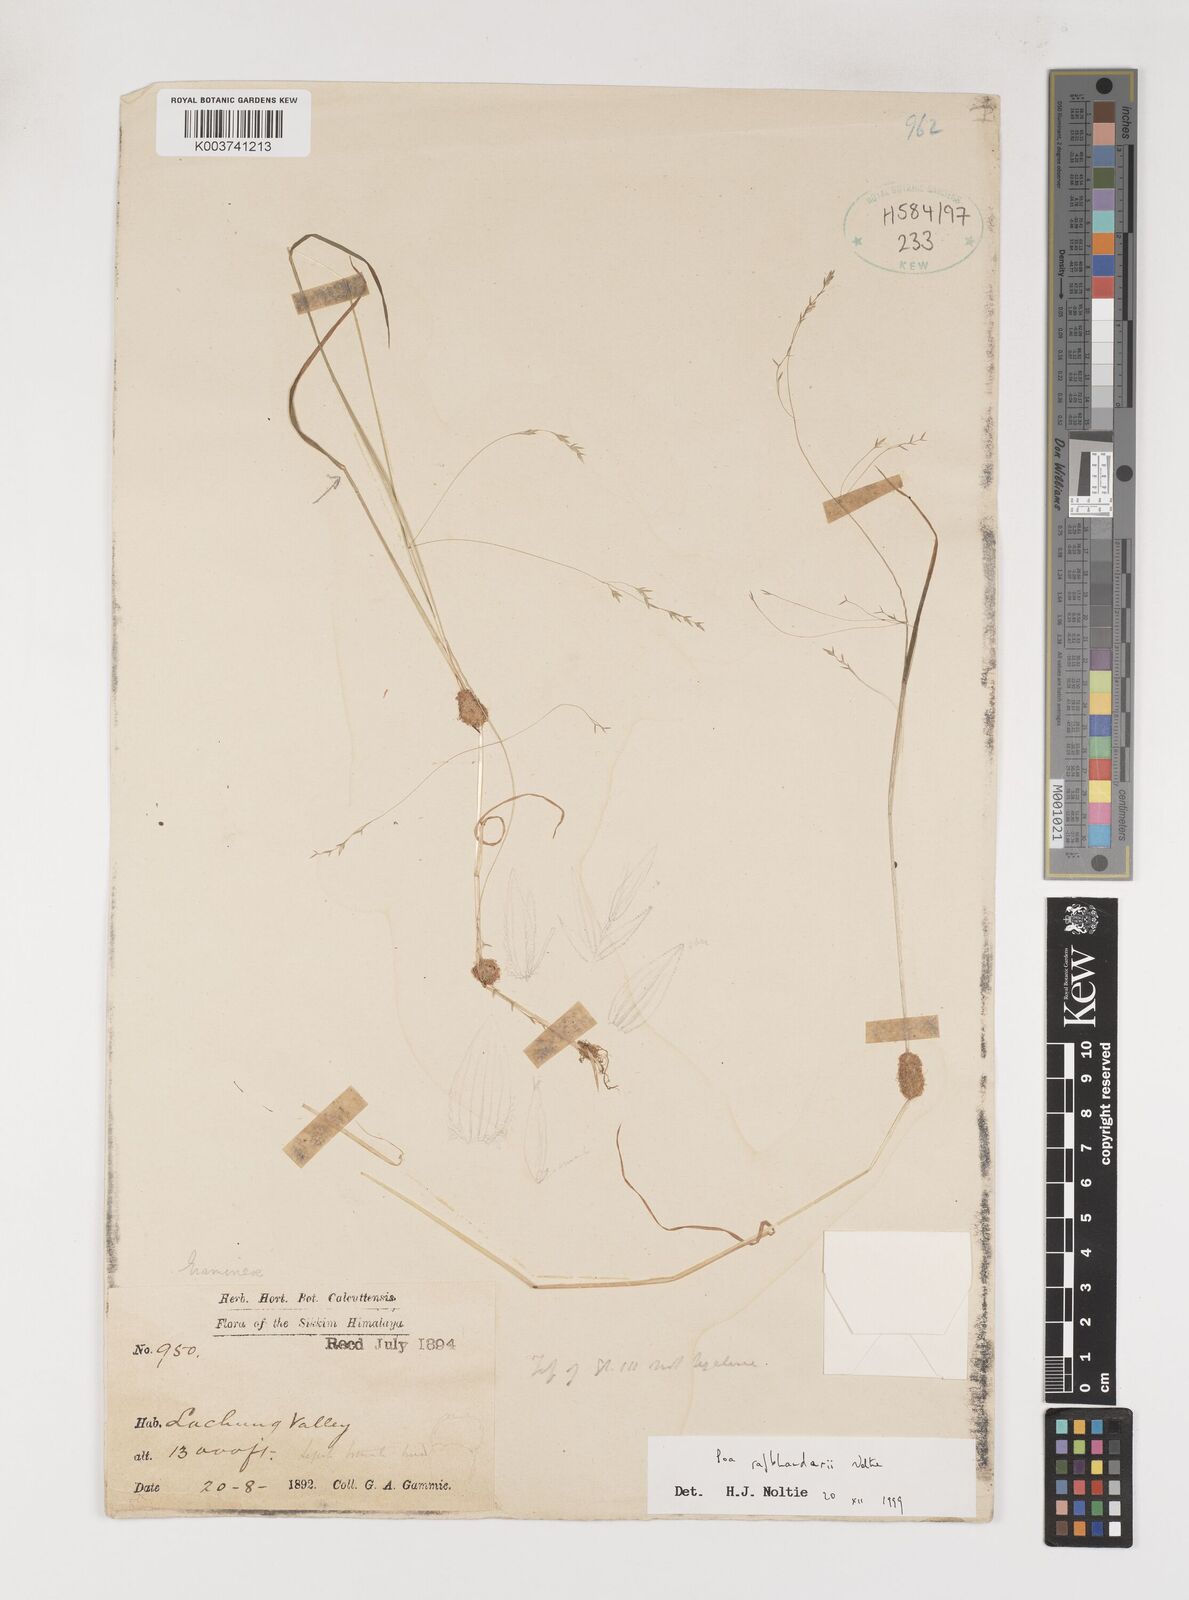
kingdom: Plantae
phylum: Tracheophyta
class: Liliopsida
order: Poales
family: Poaceae
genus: Poa
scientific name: Poa rajbhandarii
